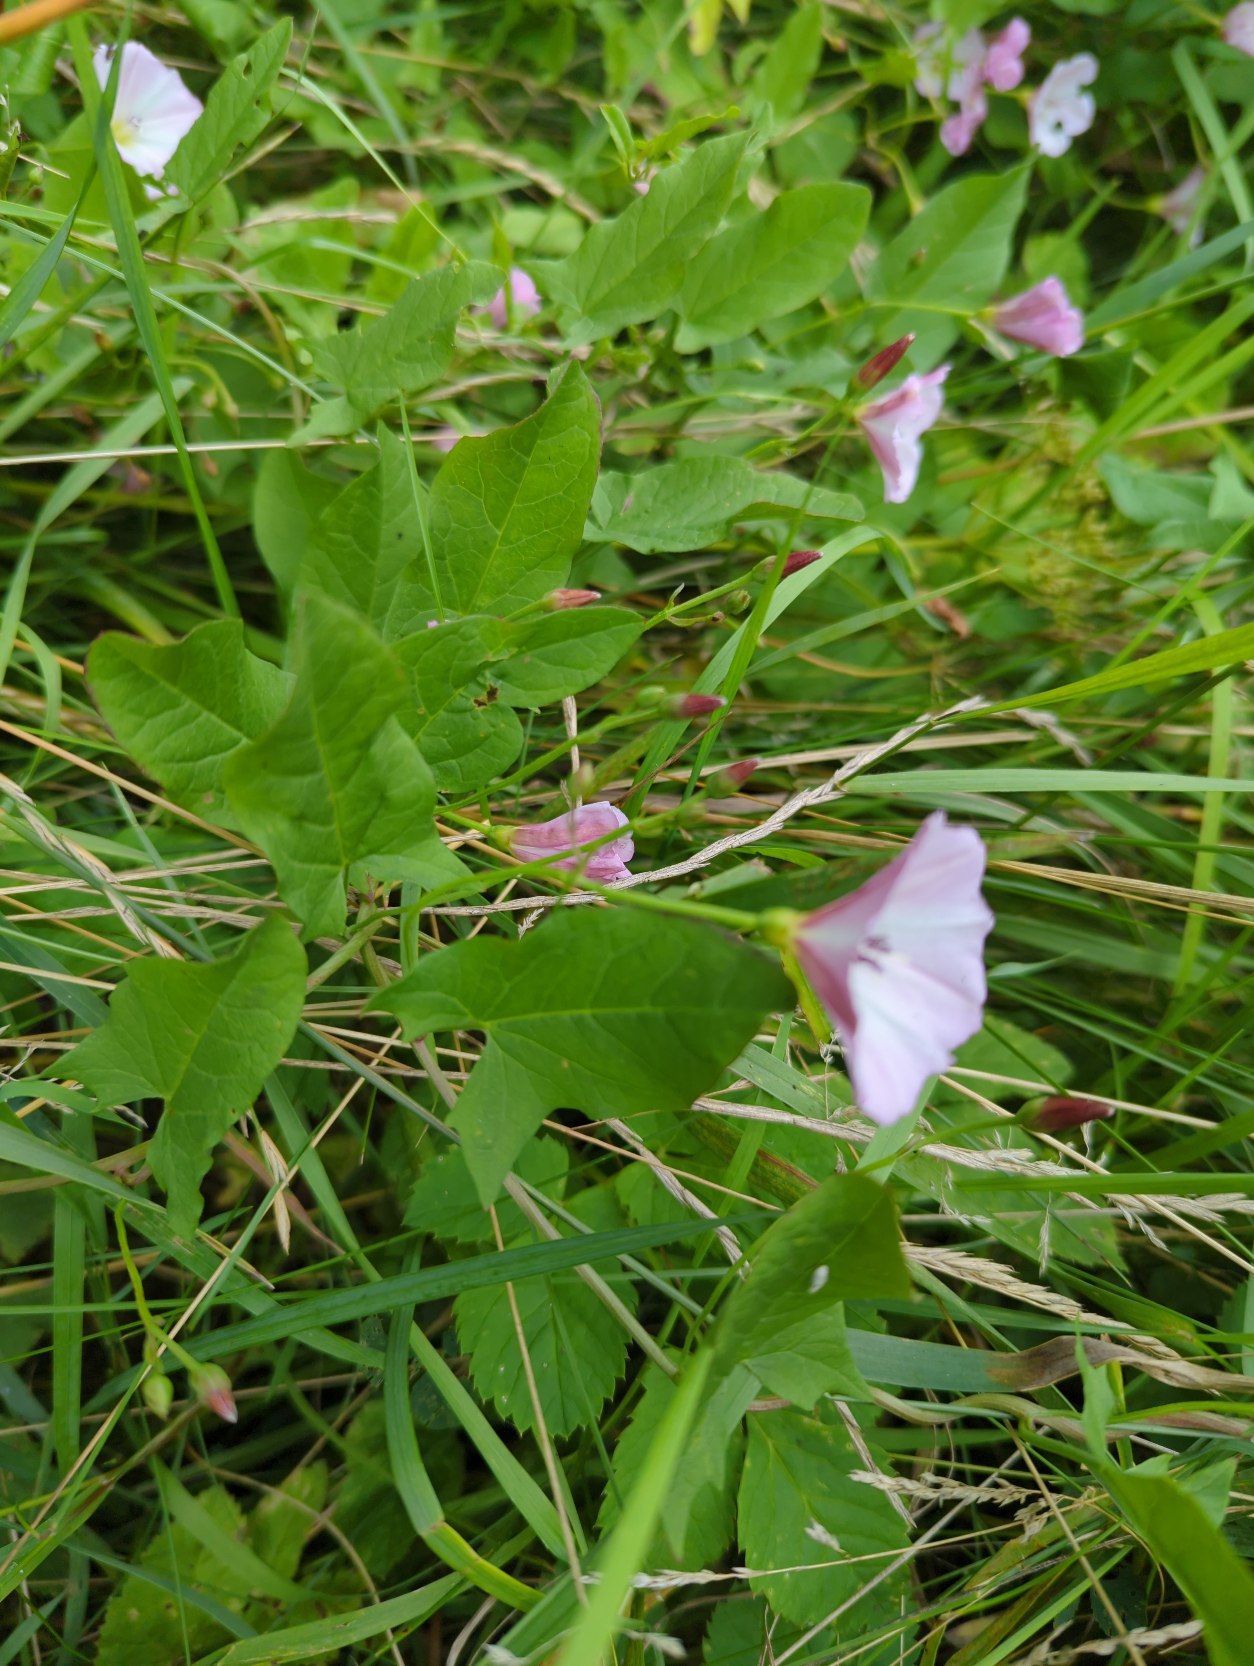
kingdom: Plantae
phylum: Tracheophyta
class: Magnoliopsida
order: Solanales
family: Convolvulaceae
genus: Convolvulus
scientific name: Convolvulus arvensis
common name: Ager-snerle
